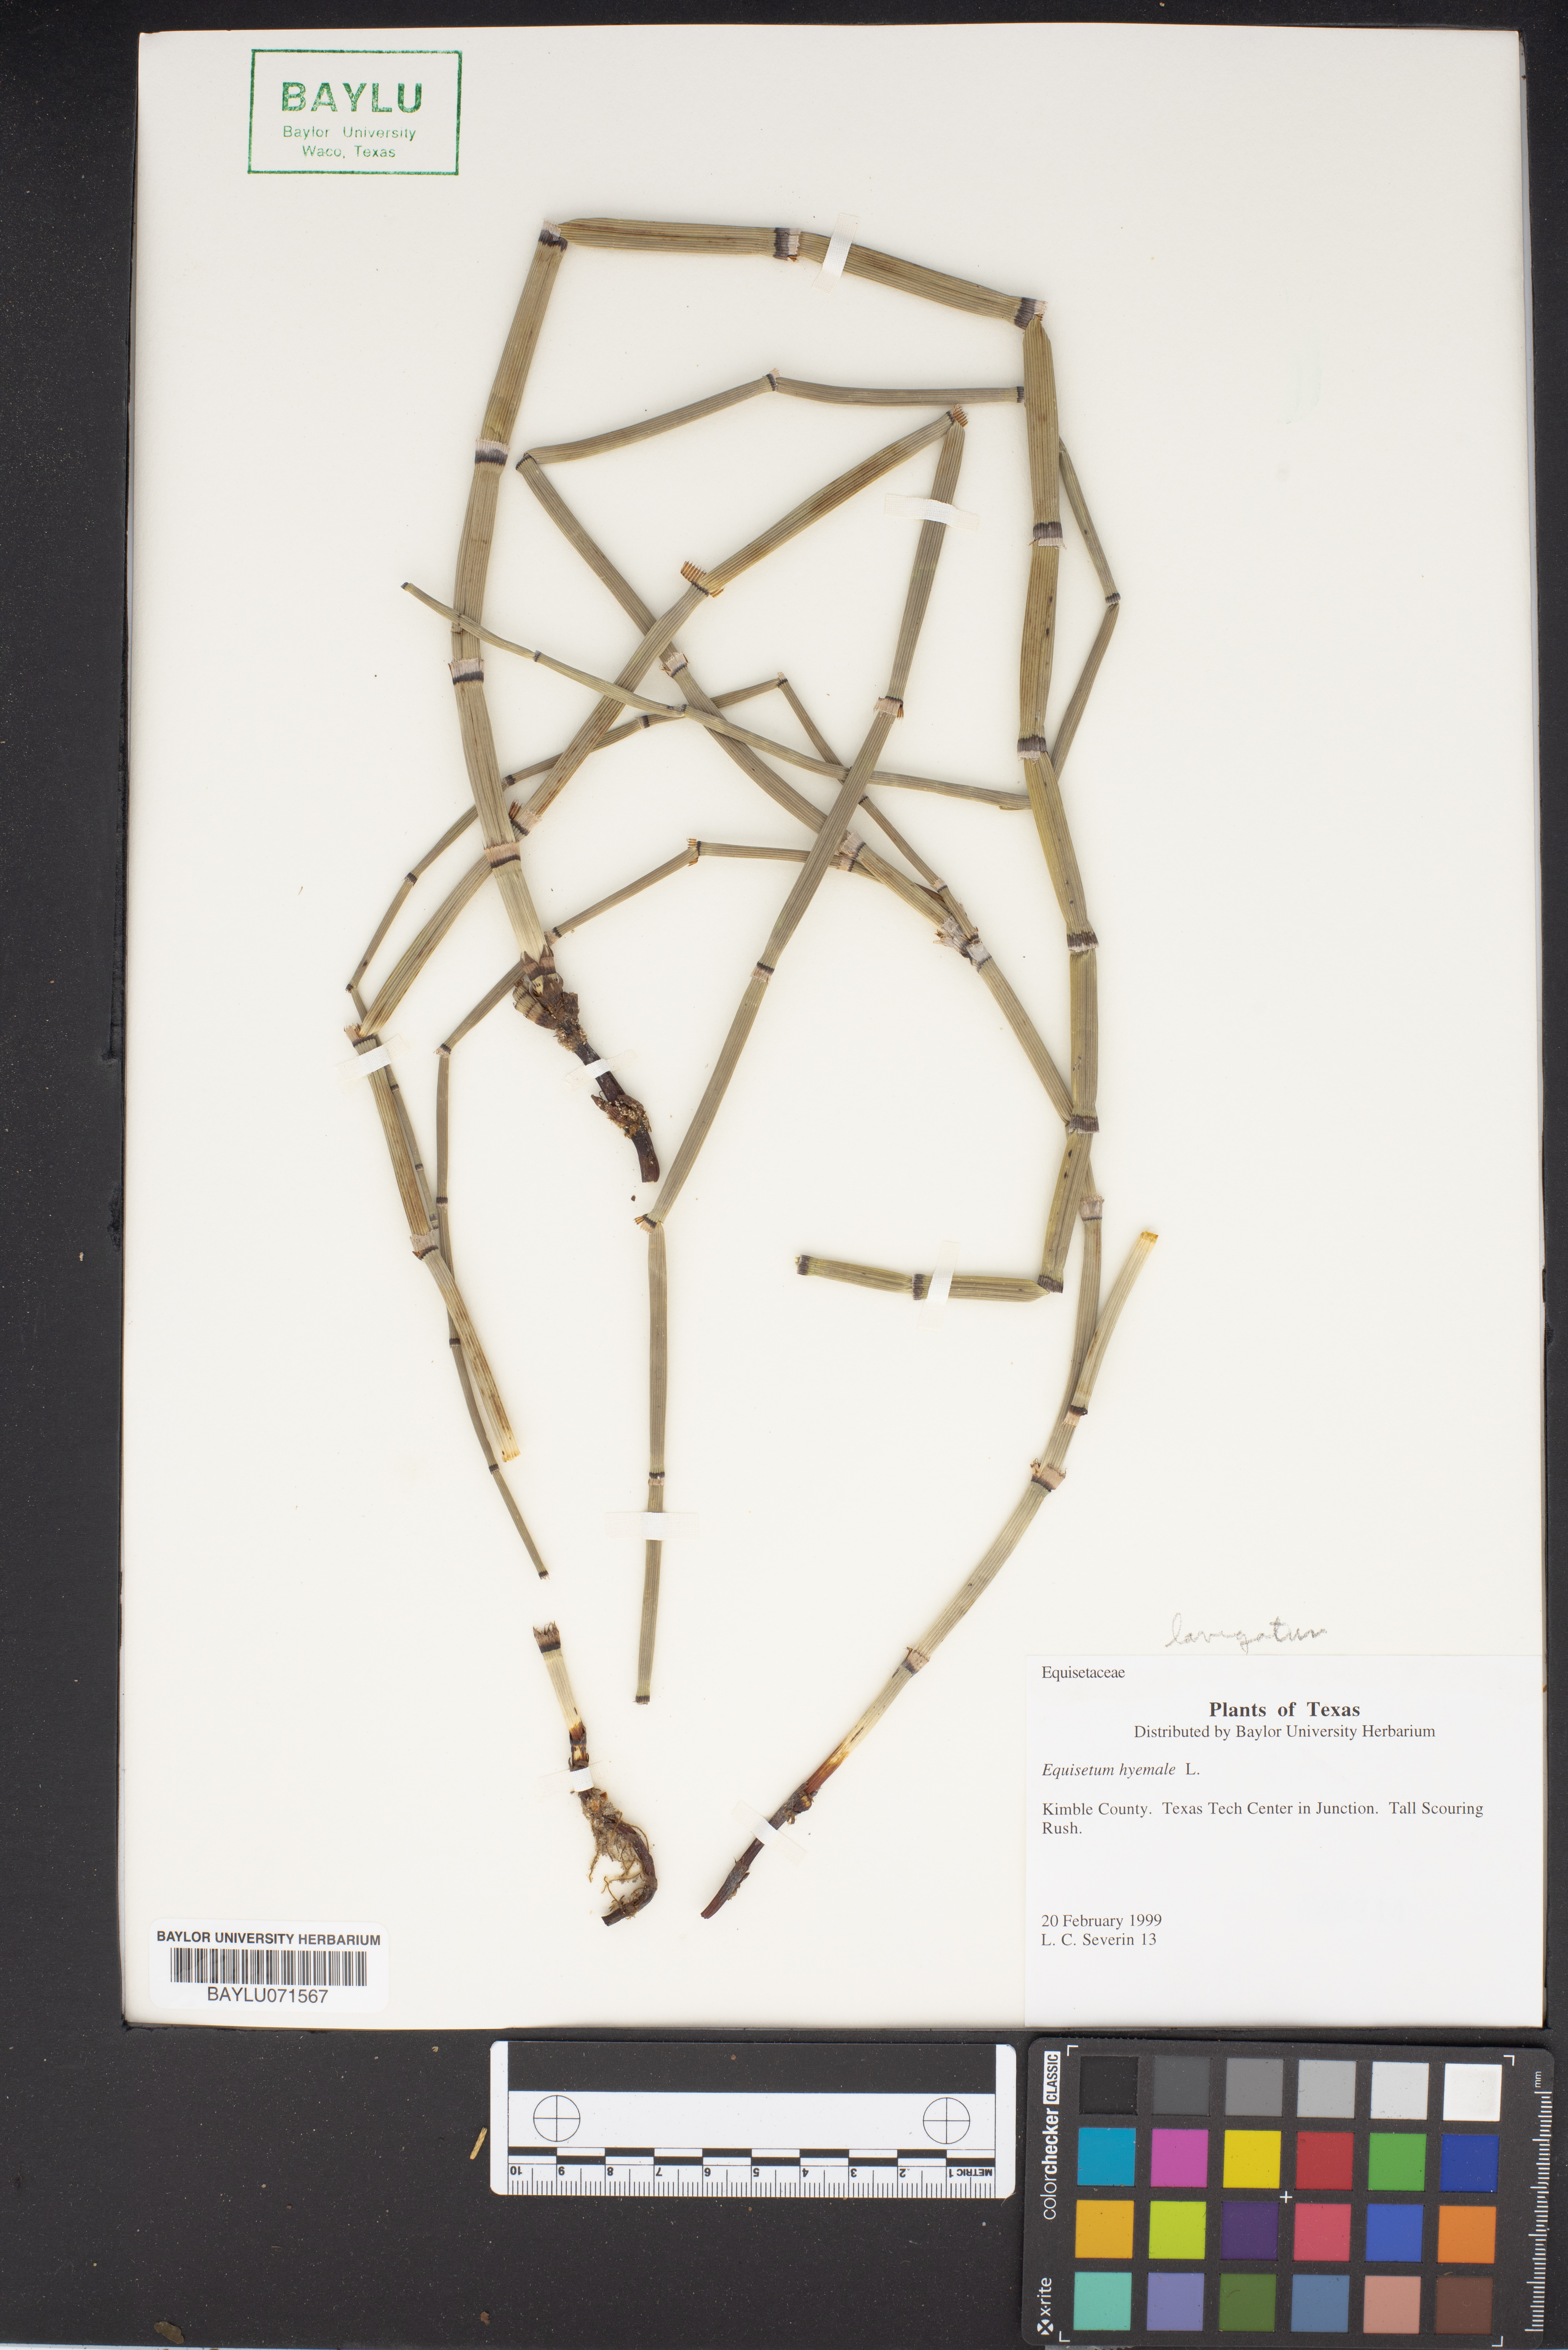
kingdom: Plantae
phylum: Tracheophyta
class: Polypodiopsida
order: Equisetales
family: Equisetaceae
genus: Equisetum
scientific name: Equisetum hyemale
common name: Rough horsetail
